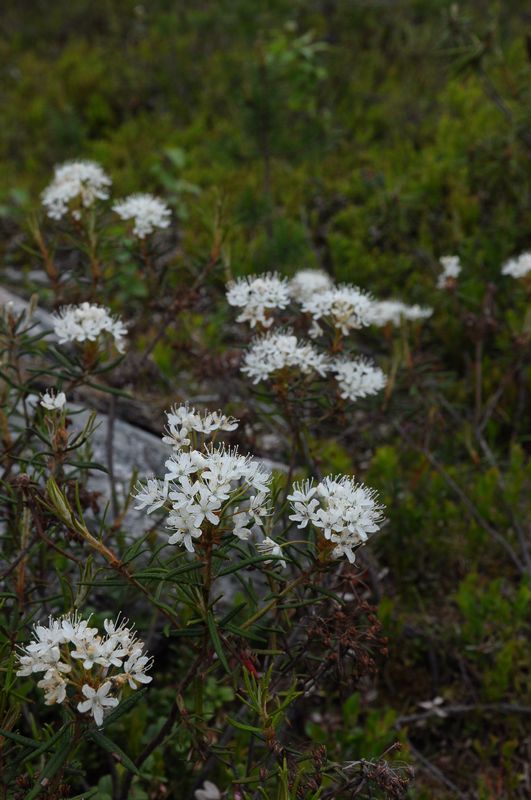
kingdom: Plantae
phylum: Tracheophyta
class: Magnoliopsida
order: Ericales
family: Ericaceae
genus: Rhododendron
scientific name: Rhododendron tomentosum
